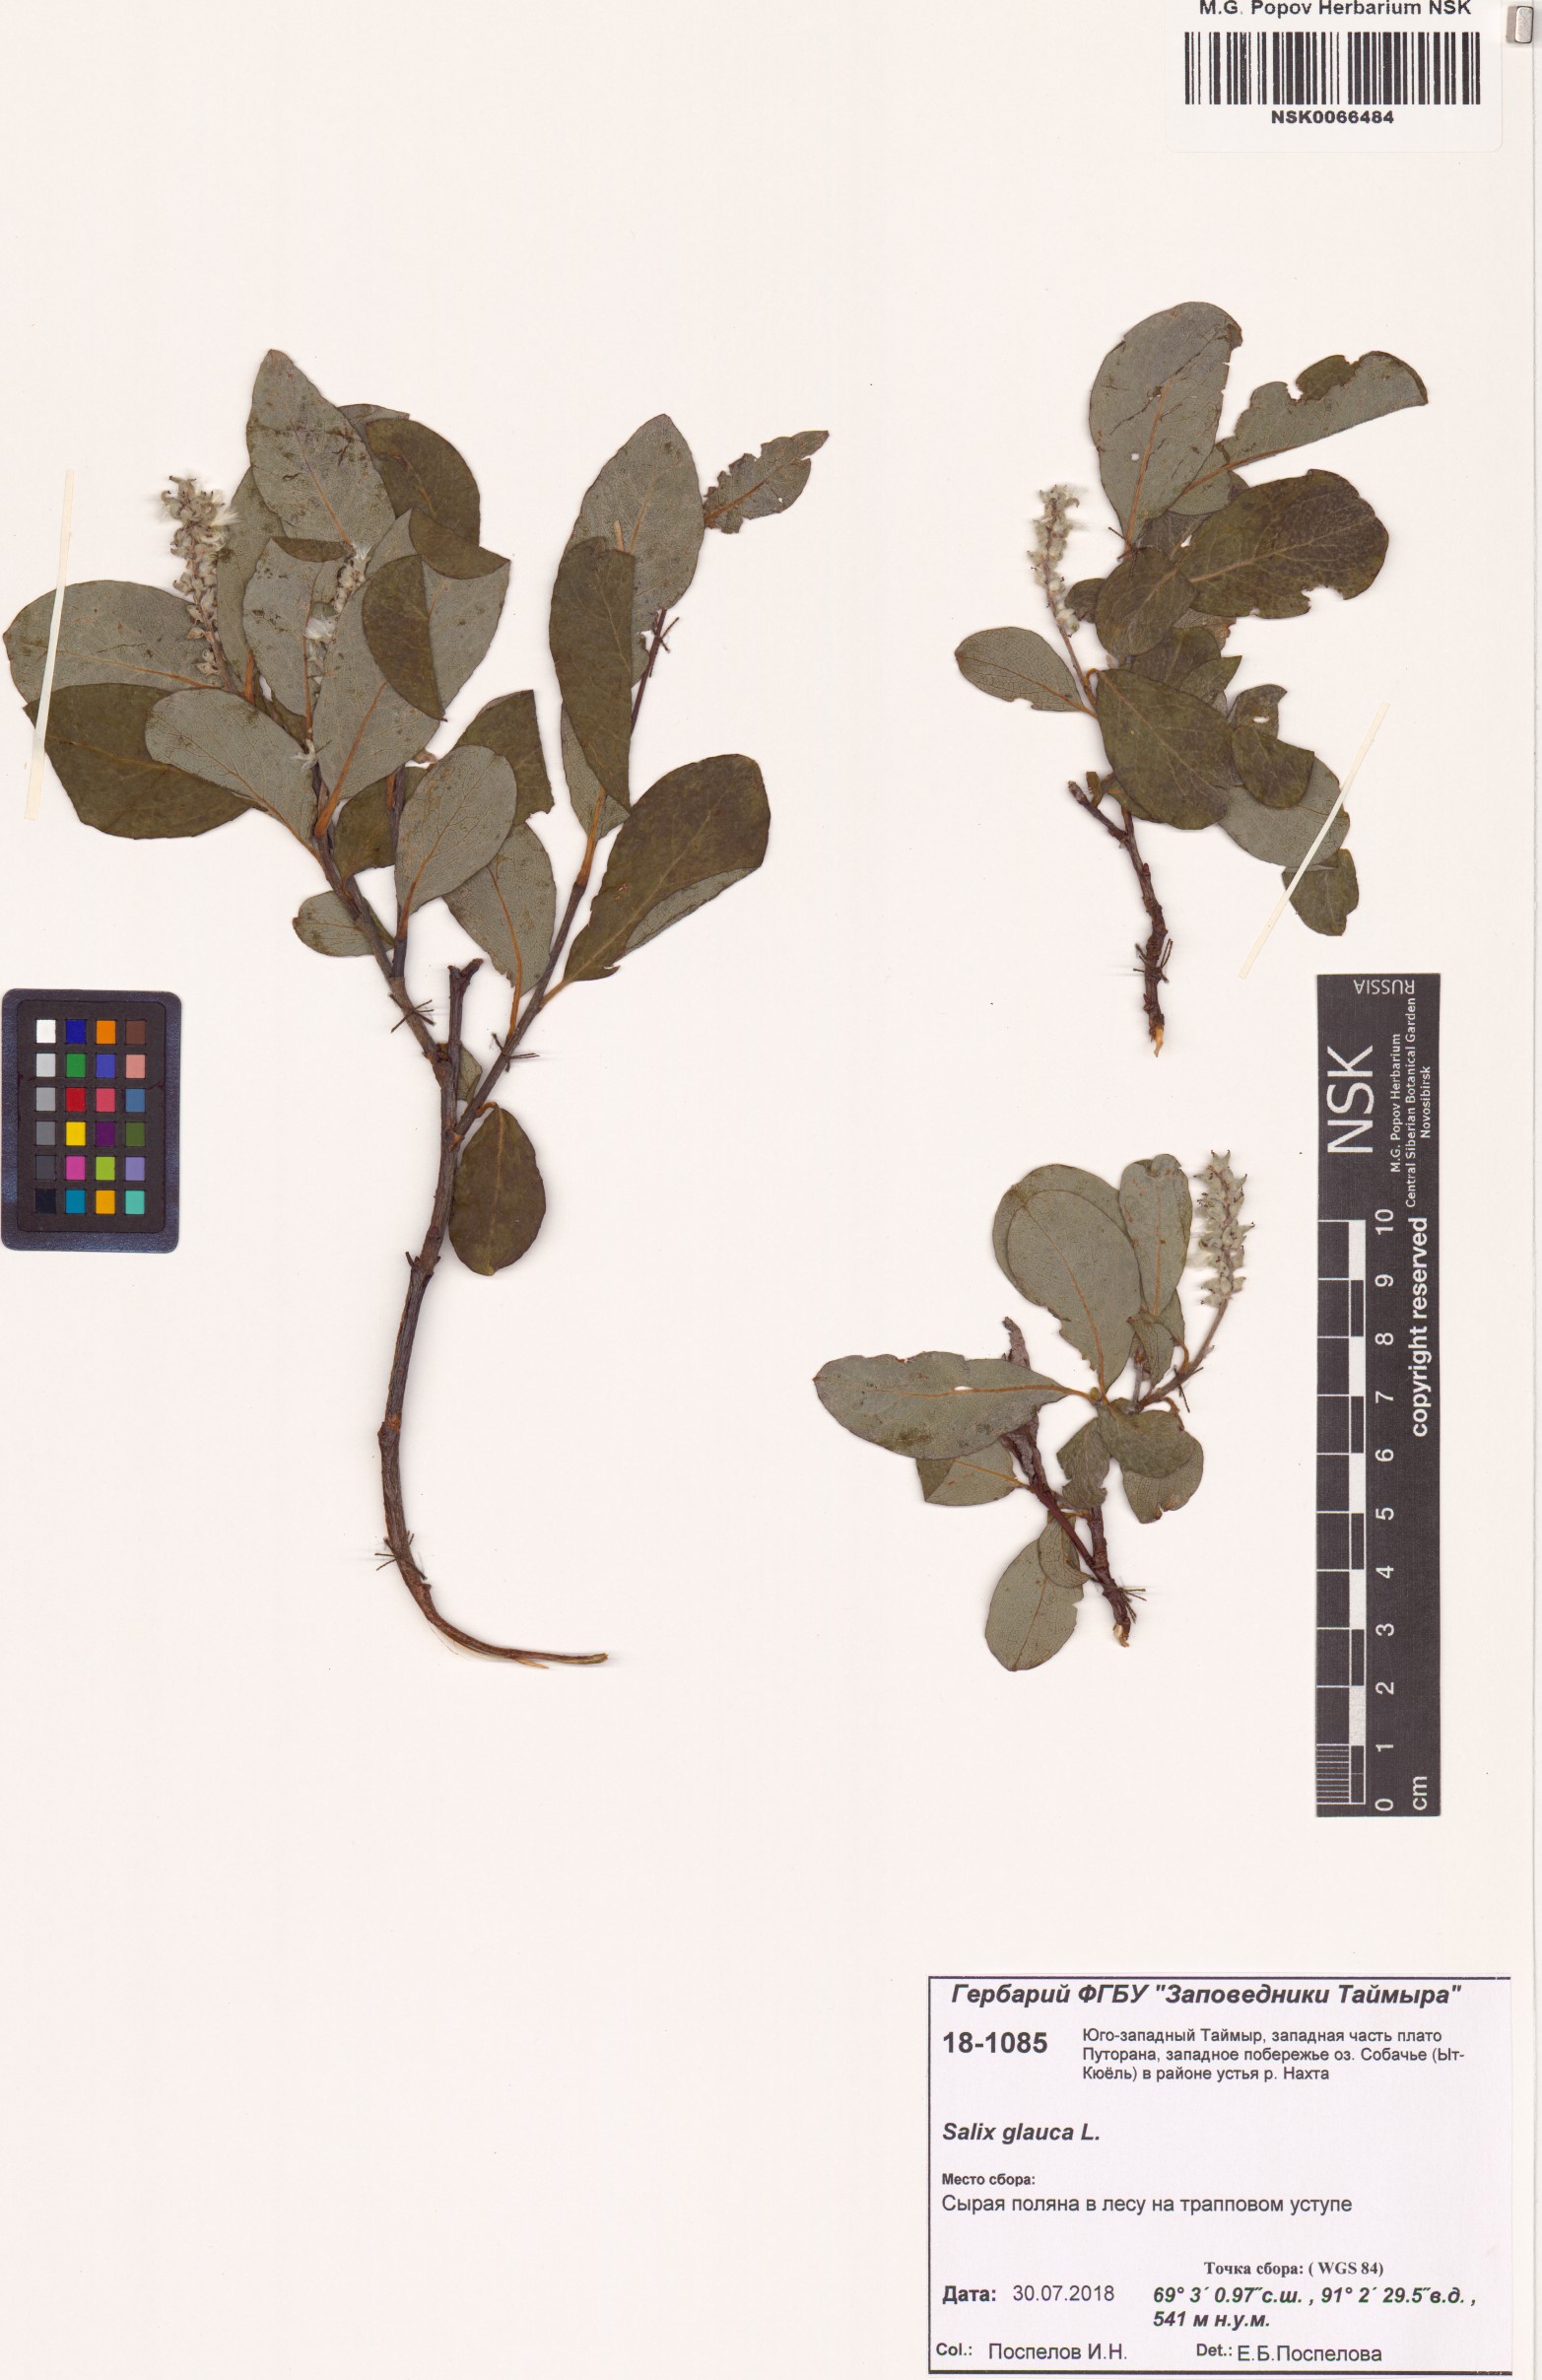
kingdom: Plantae
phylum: Tracheophyta
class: Magnoliopsida
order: Malpighiales
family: Salicaceae
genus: Salix
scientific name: Salix glauca
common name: Glaucous willow
